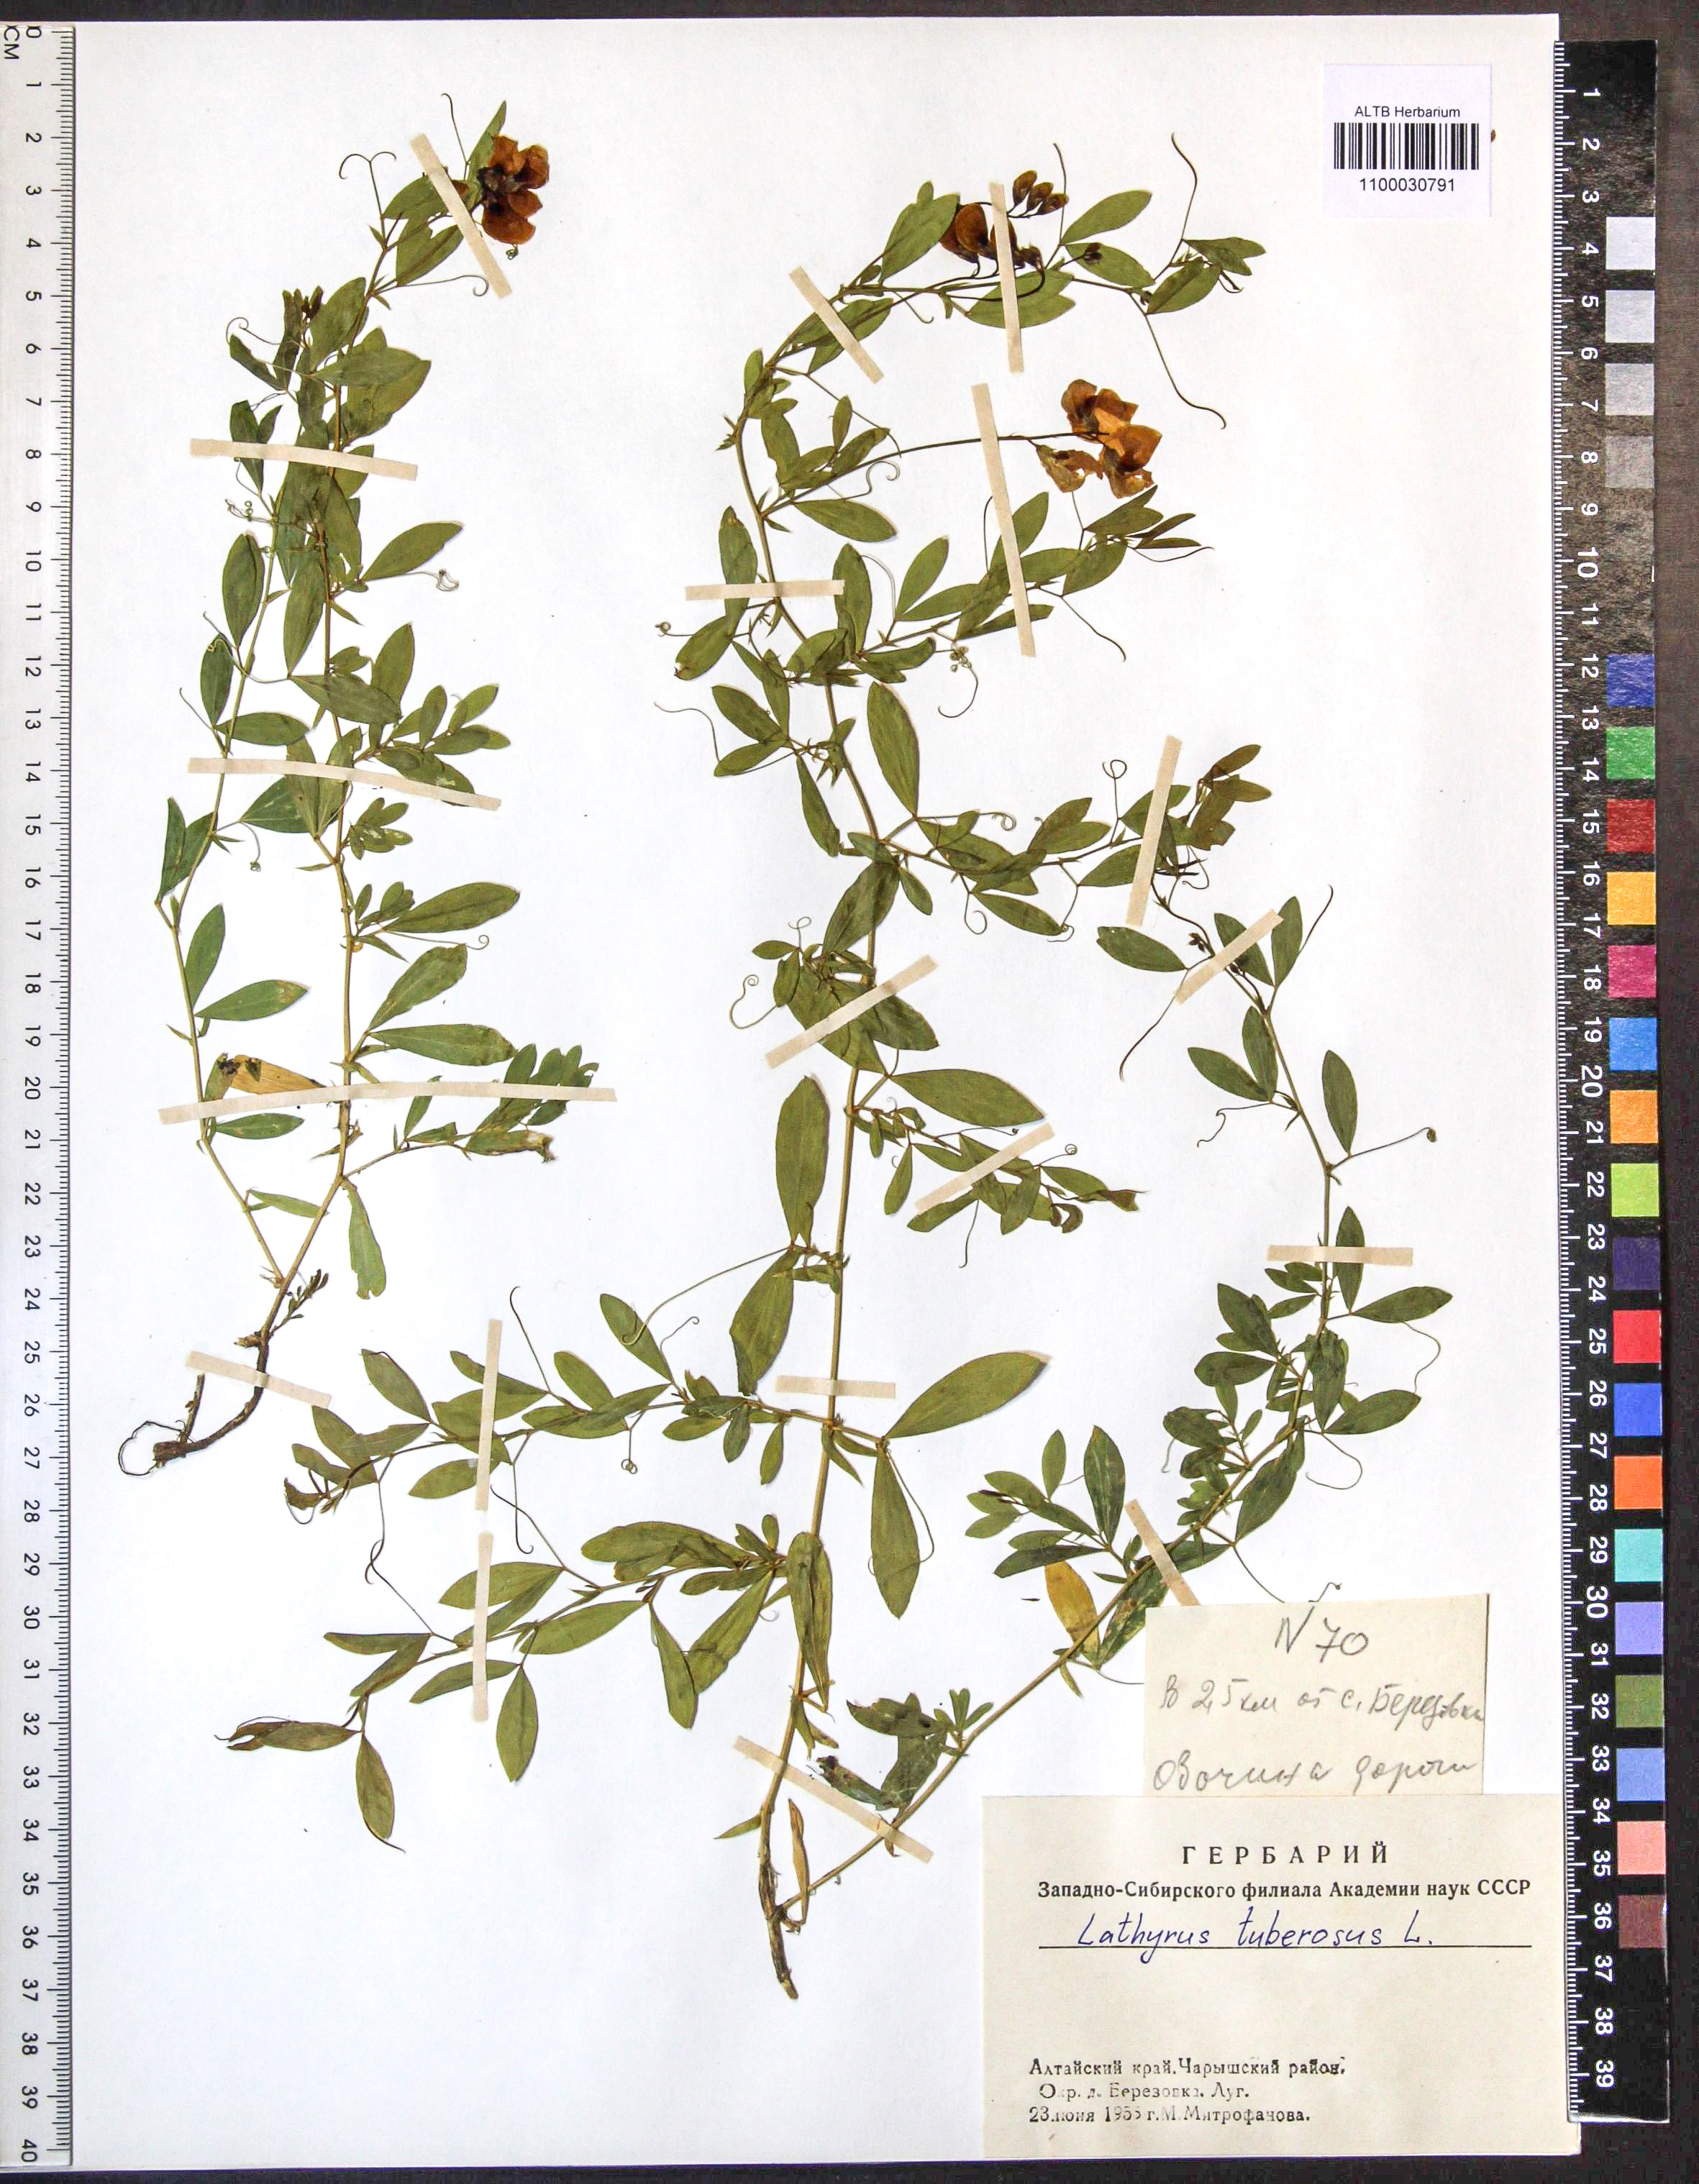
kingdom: Plantae
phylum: Tracheophyta
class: Magnoliopsida
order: Fabales
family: Fabaceae
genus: Lathyrus
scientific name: Lathyrus tuberosus
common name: Tuberous pea
